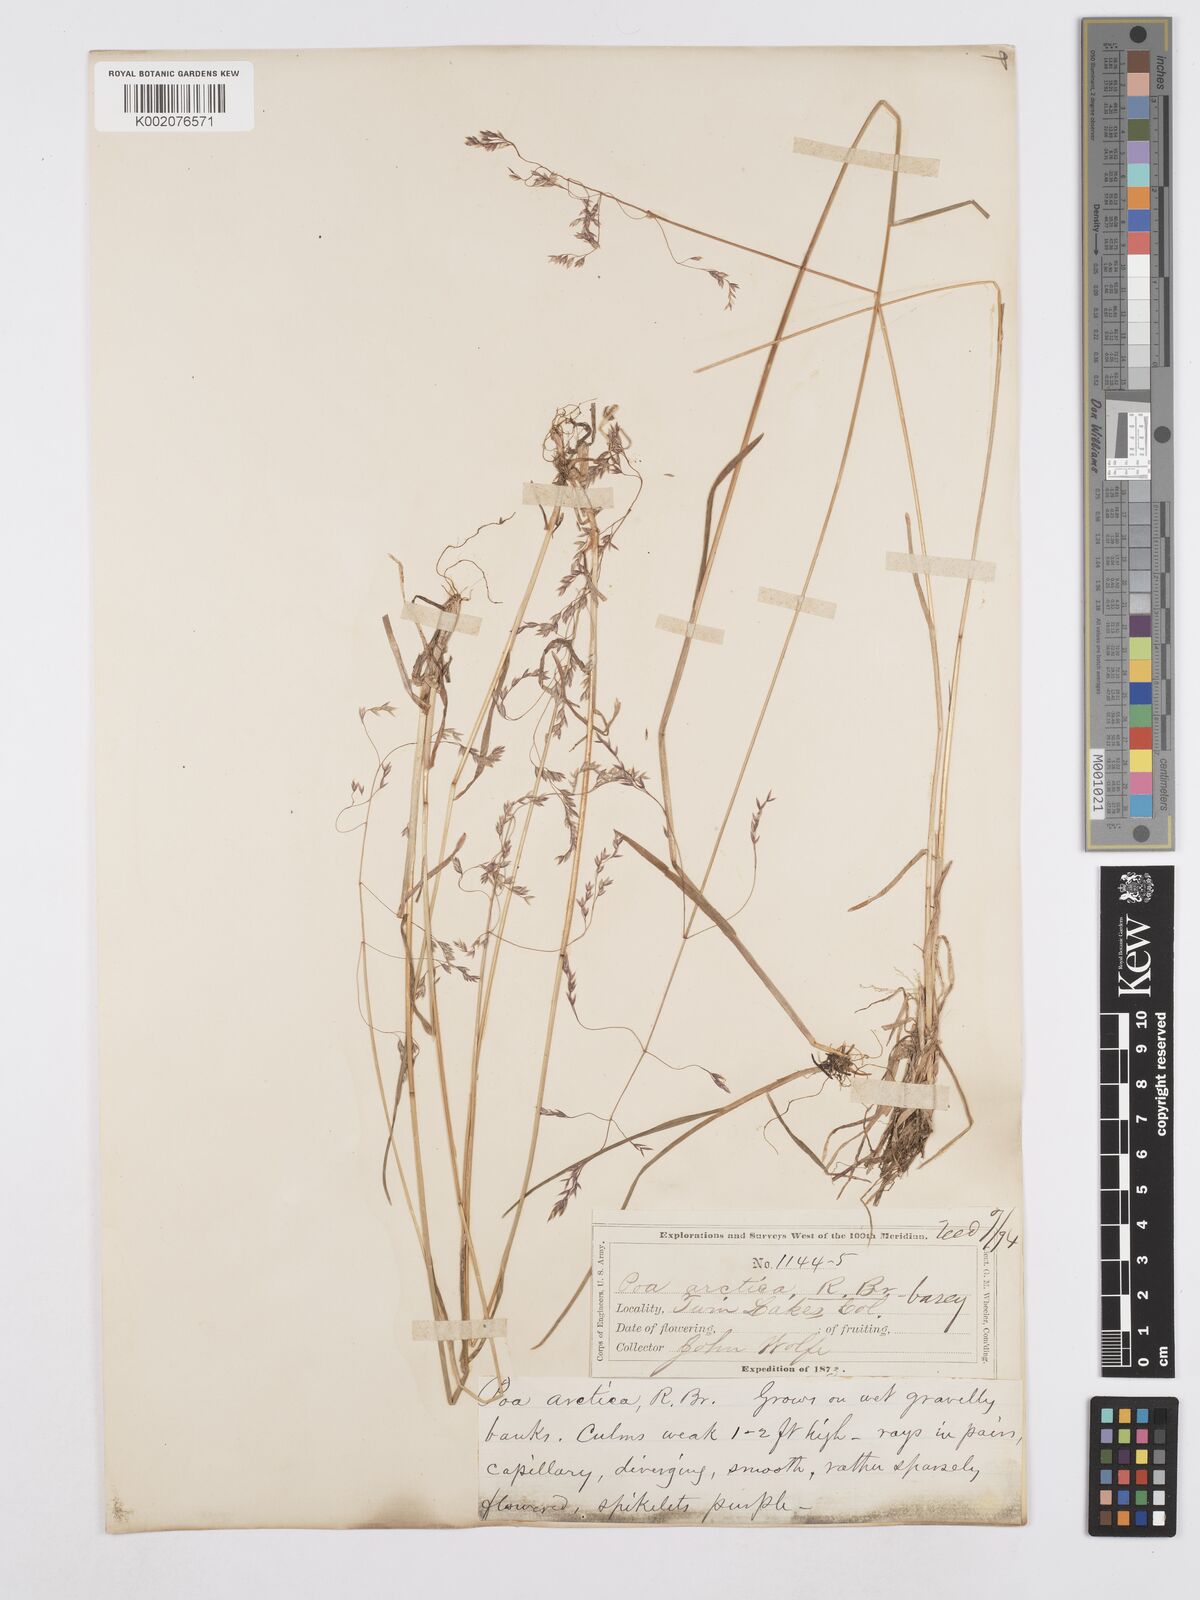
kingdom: Plantae
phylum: Tracheophyta
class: Liliopsida
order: Poales
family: Poaceae
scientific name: Poaceae
